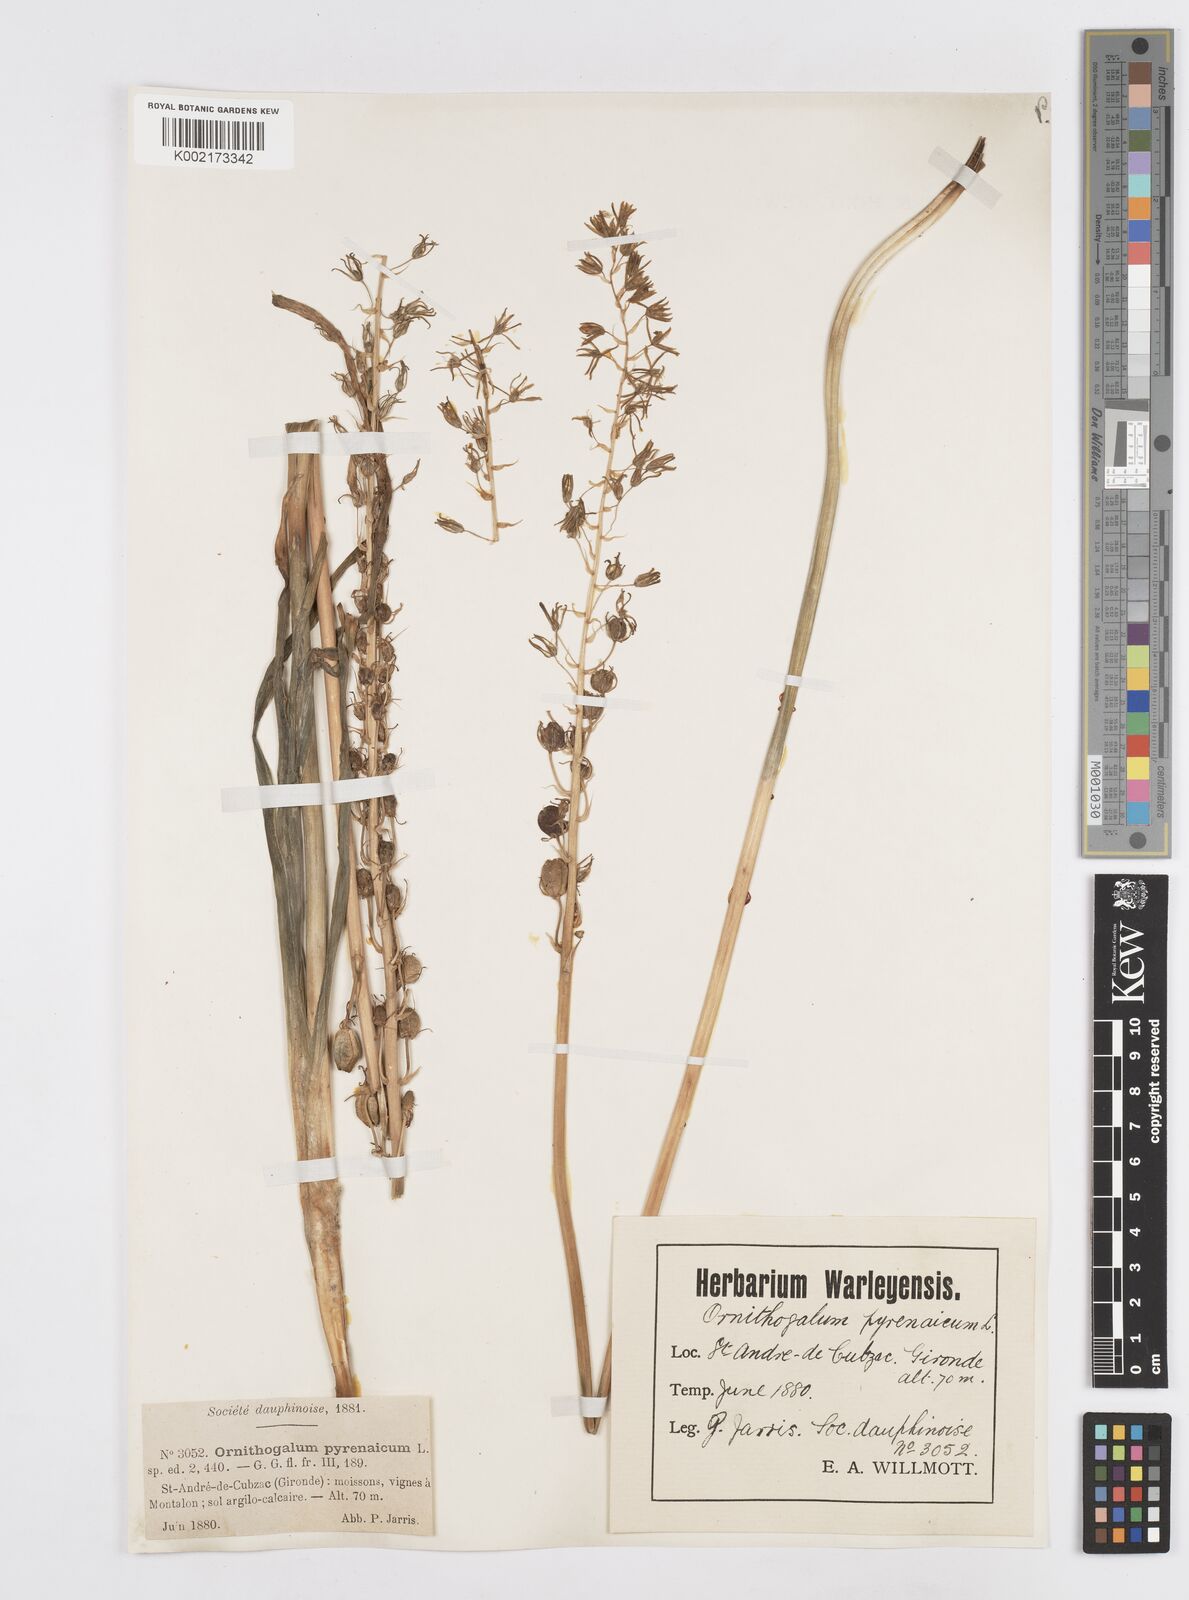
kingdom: Plantae
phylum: Tracheophyta
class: Liliopsida
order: Asparagales
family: Asparagaceae
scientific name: Asparagaceae
